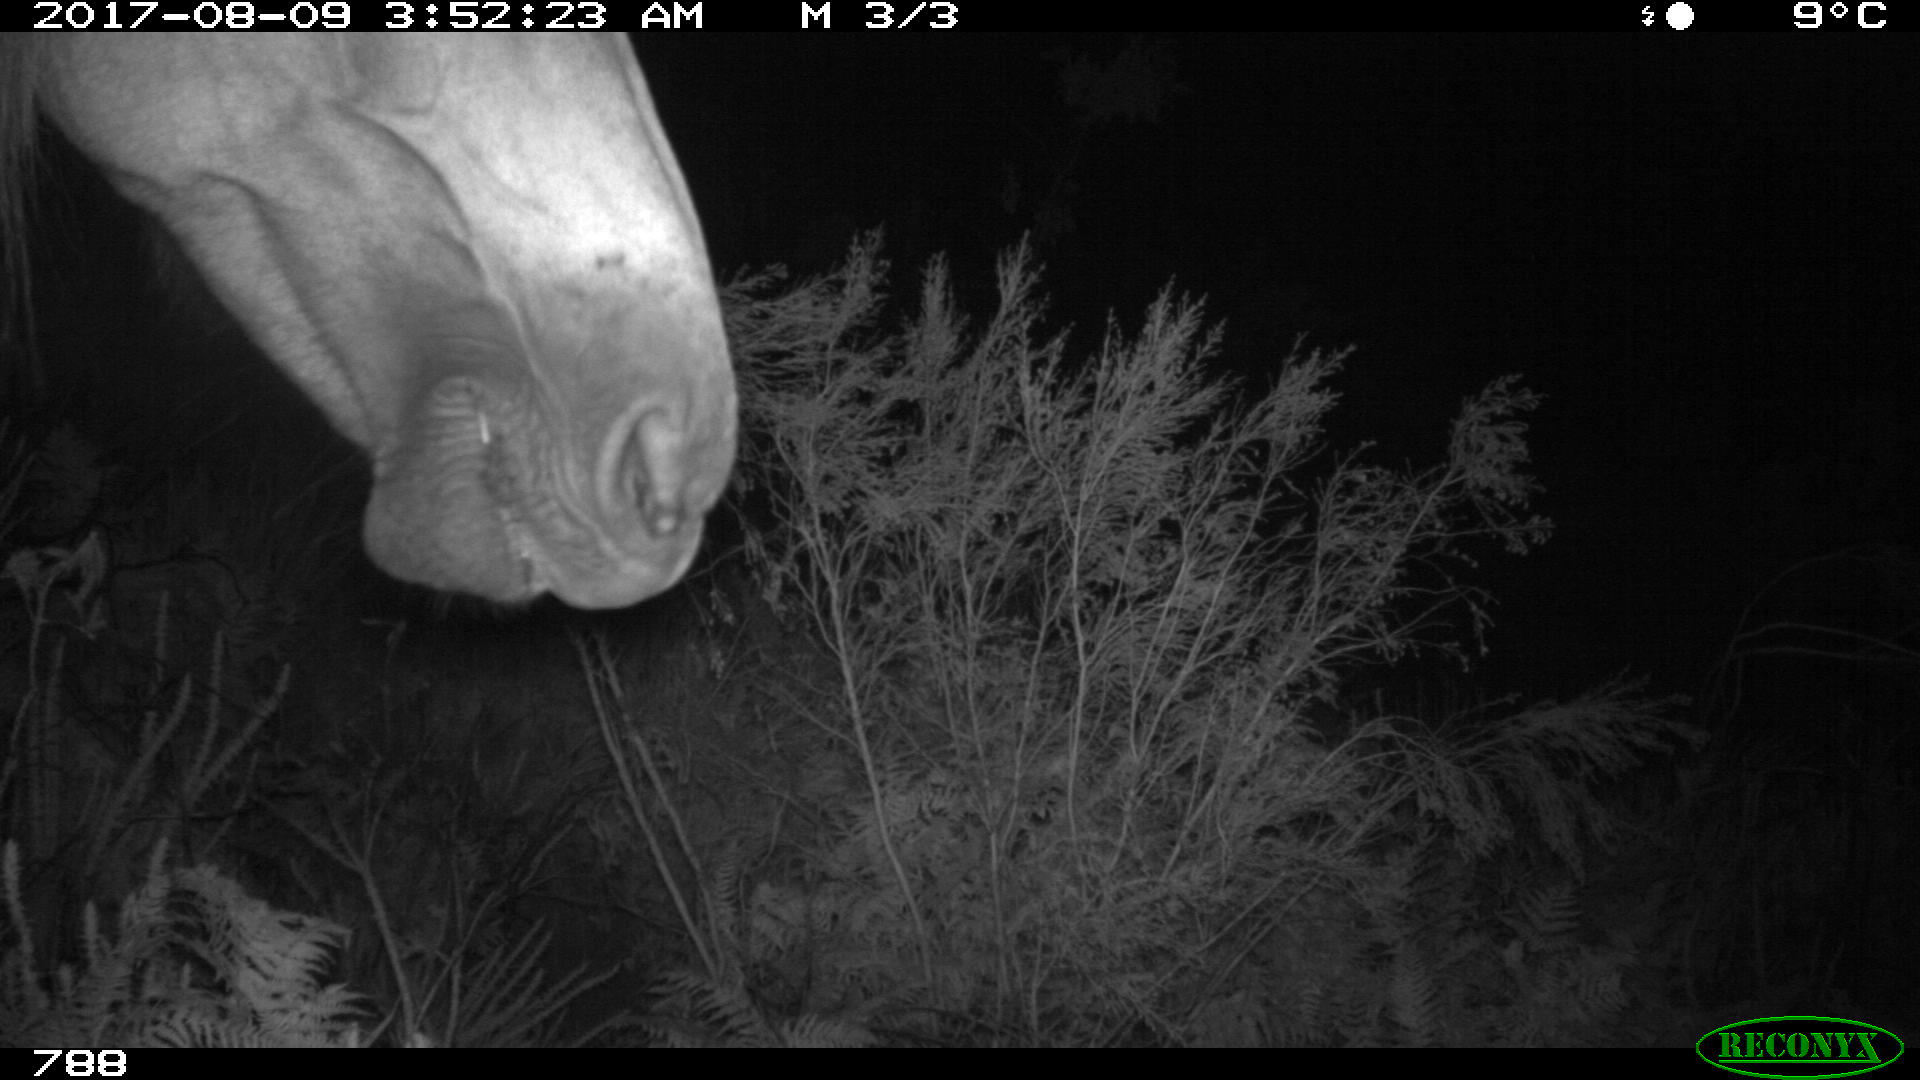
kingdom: Animalia
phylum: Chordata
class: Mammalia
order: Perissodactyla
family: Equidae
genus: Equus
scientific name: Equus caballus
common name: Horse
